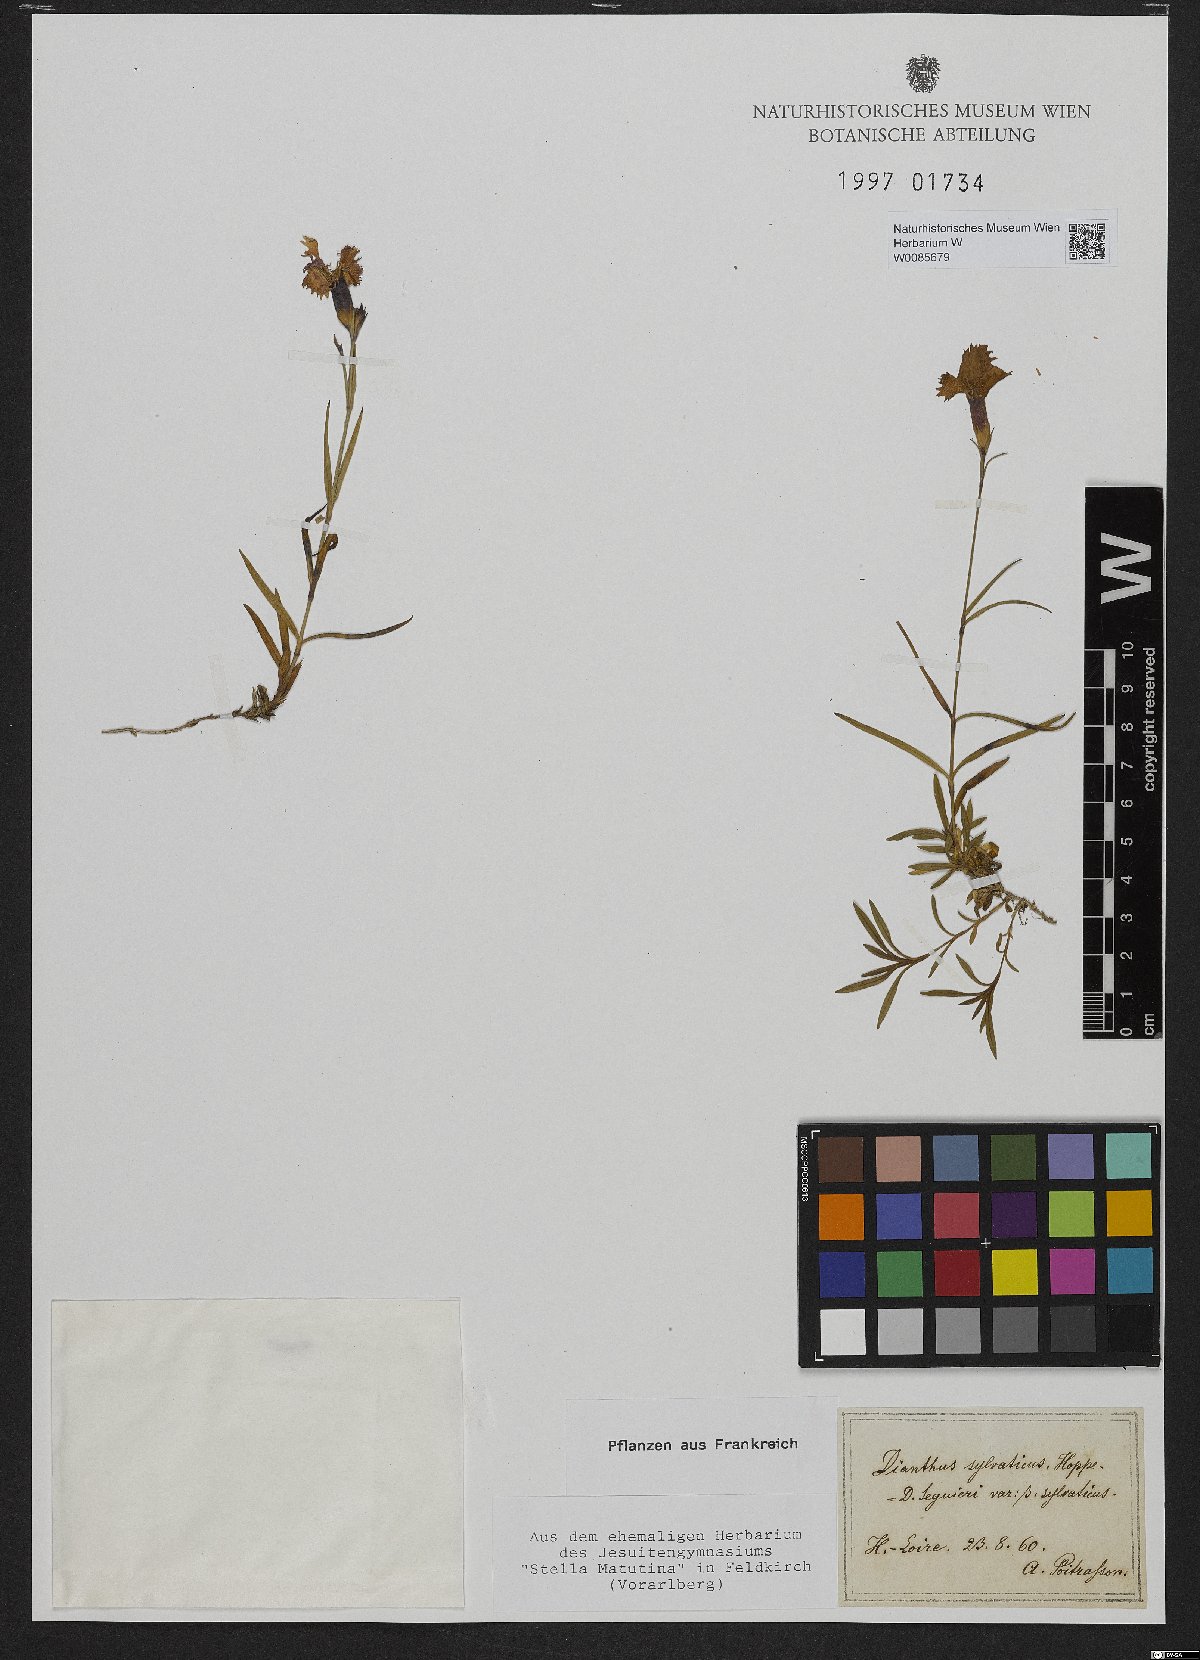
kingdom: Plantae
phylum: Tracheophyta
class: Magnoliopsida
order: Caryophyllales
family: Caryophyllaceae
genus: Dianthus
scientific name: Dianthus seguieri
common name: Ragged pink
